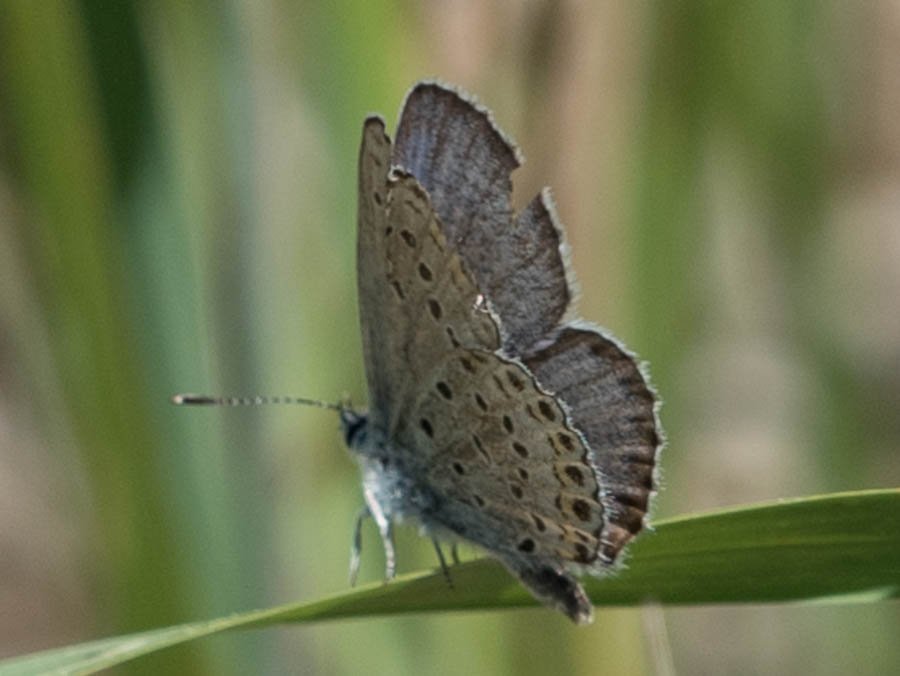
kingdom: Animalia
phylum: Arthropoda
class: Insecta
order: Lepidoptera
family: Lycaenidae
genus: Lycaeides
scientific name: Lycaeides idas
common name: Northern Blue
